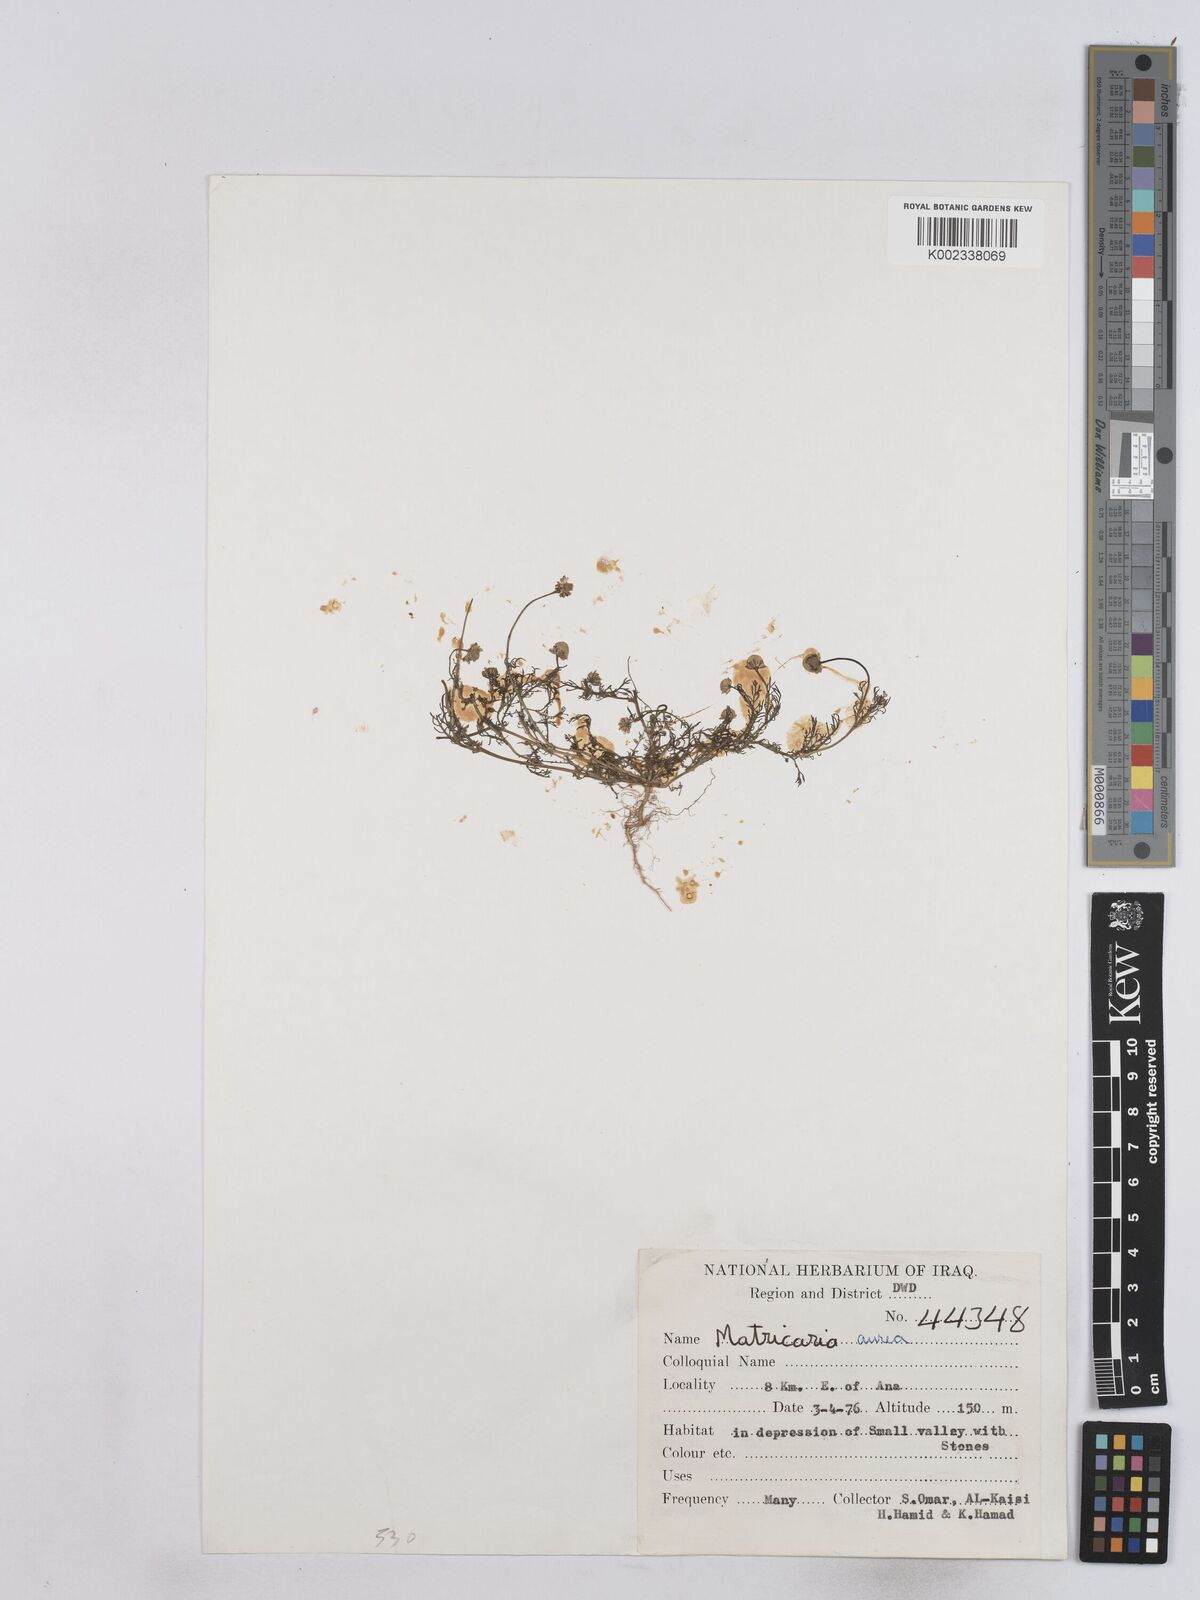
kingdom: Plantae
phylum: Tracheophyta
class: Magnoliopsida
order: Asterales
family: Asteraceae
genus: Matricaria
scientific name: Matricaria aurea
